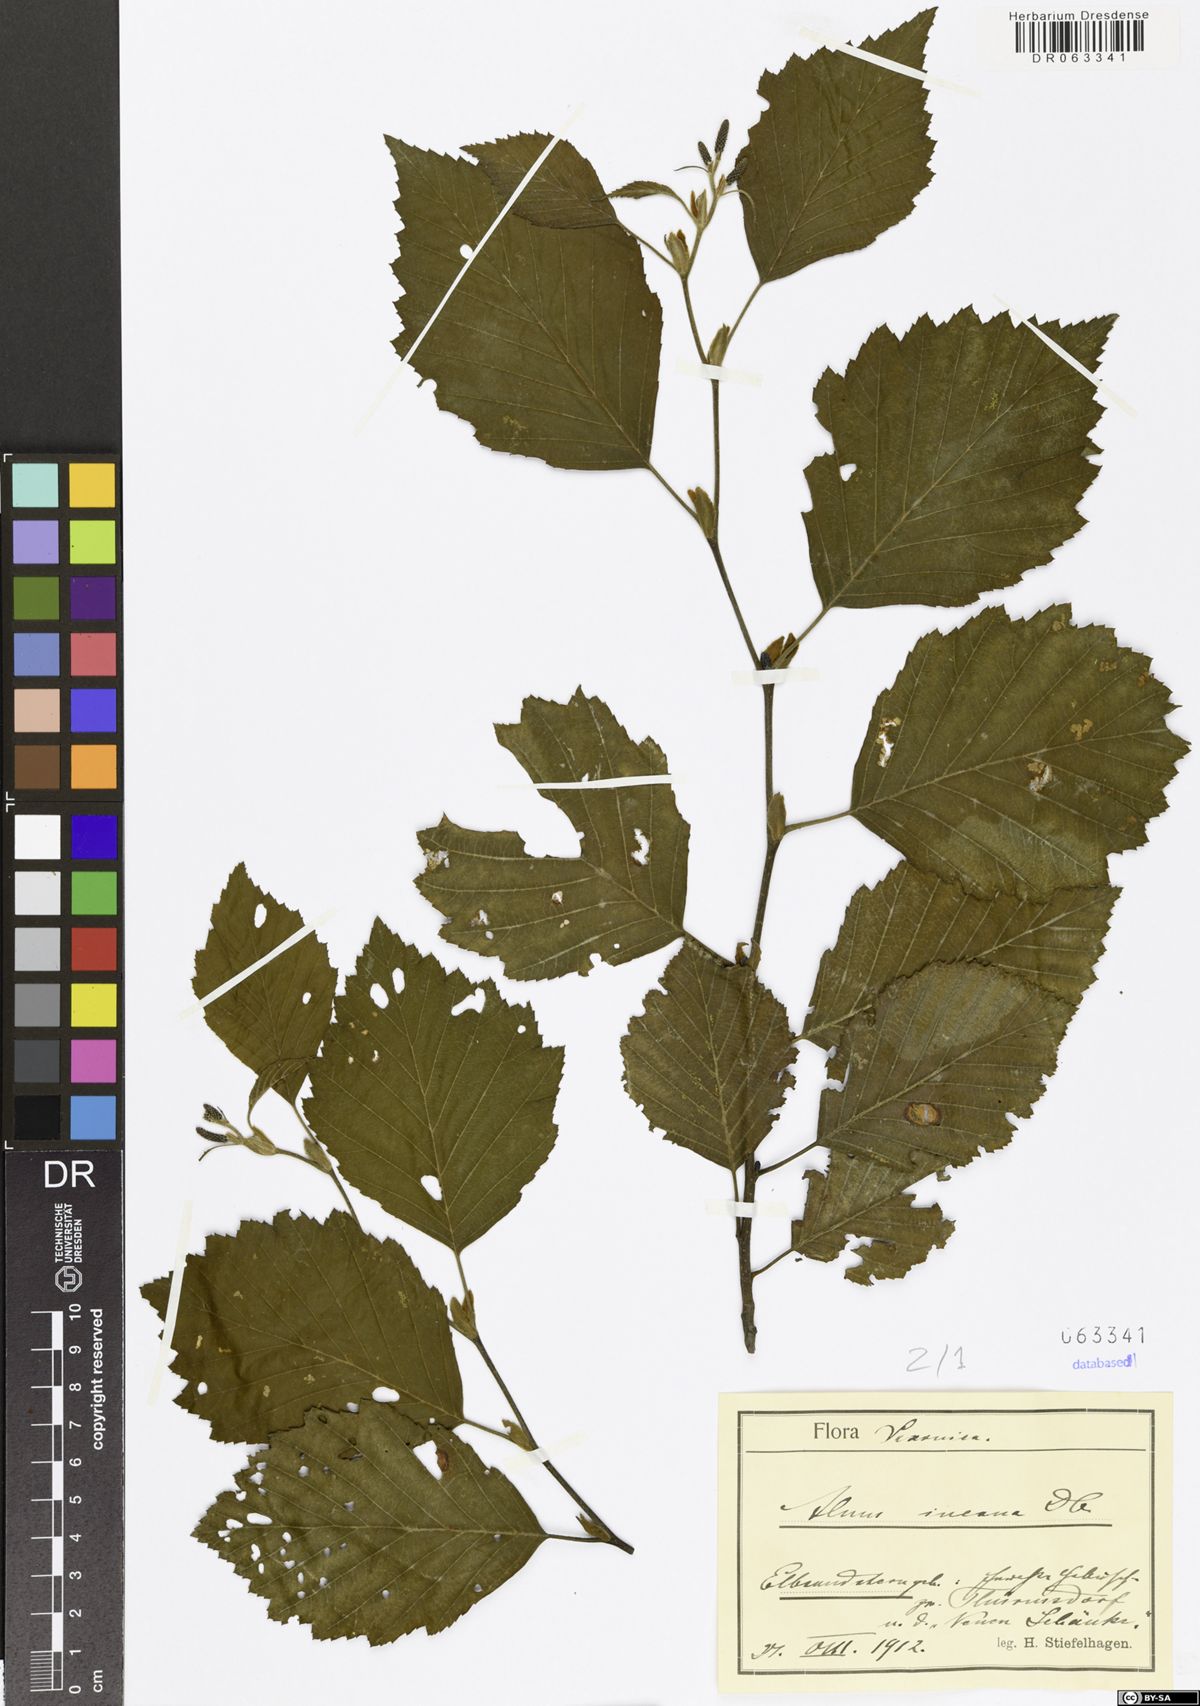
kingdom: Plantae
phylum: Tracheophyta
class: Magnoliopsida
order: Fagales
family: Betulaceae
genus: Alnus
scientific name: Alnus incana
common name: Grey alder
